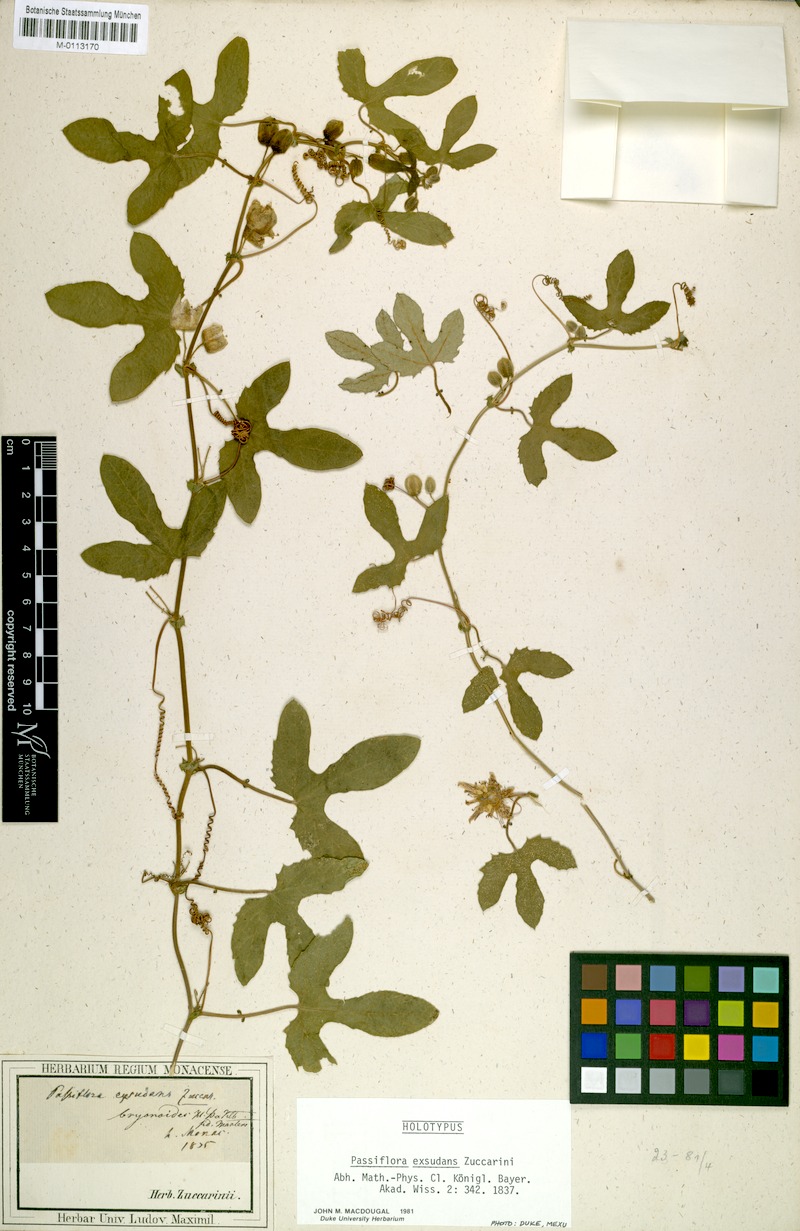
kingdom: Plantae
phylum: Tracheophyta
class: Magnoliopsida
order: Malpighiales
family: Passifloraceae
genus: Passiflora
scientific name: Passiflora exsudans
